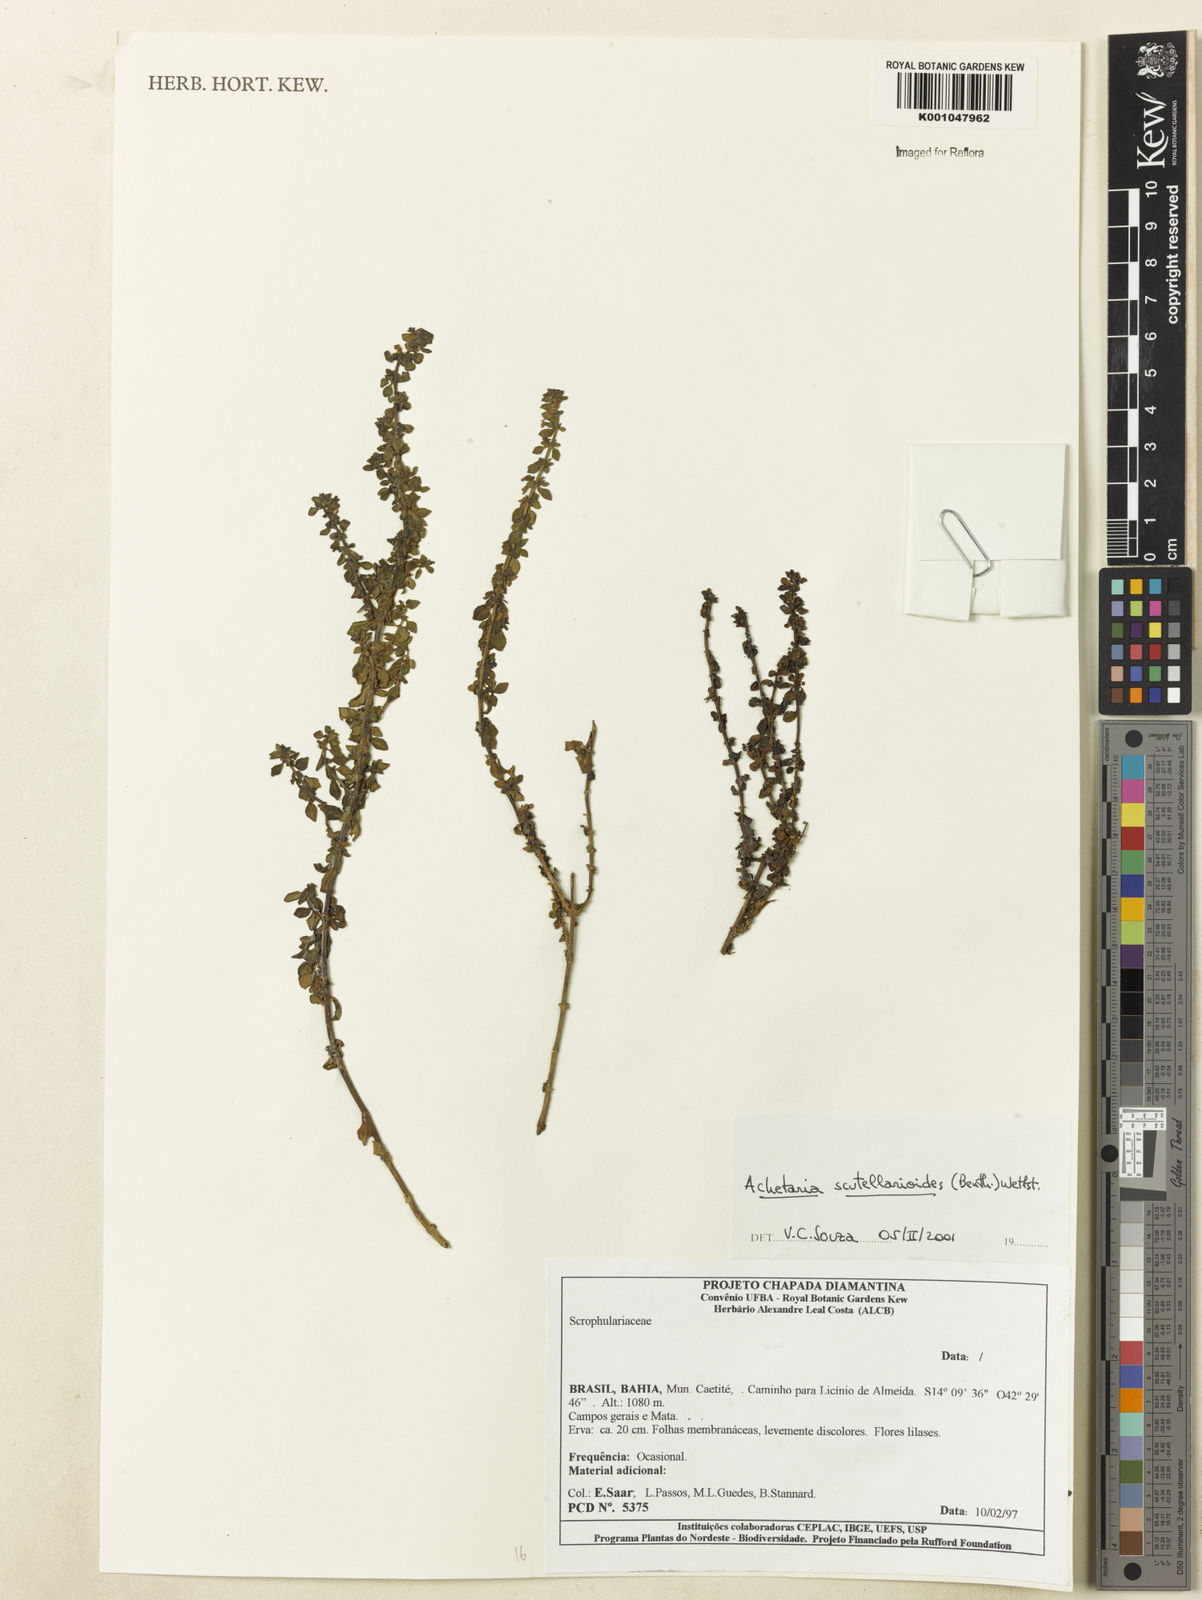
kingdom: Plantae
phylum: Tracheophyta
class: Magnoliopsida
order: Lamiales
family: Plantaginaceae
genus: Matourea
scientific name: Matourea scutellarioides
